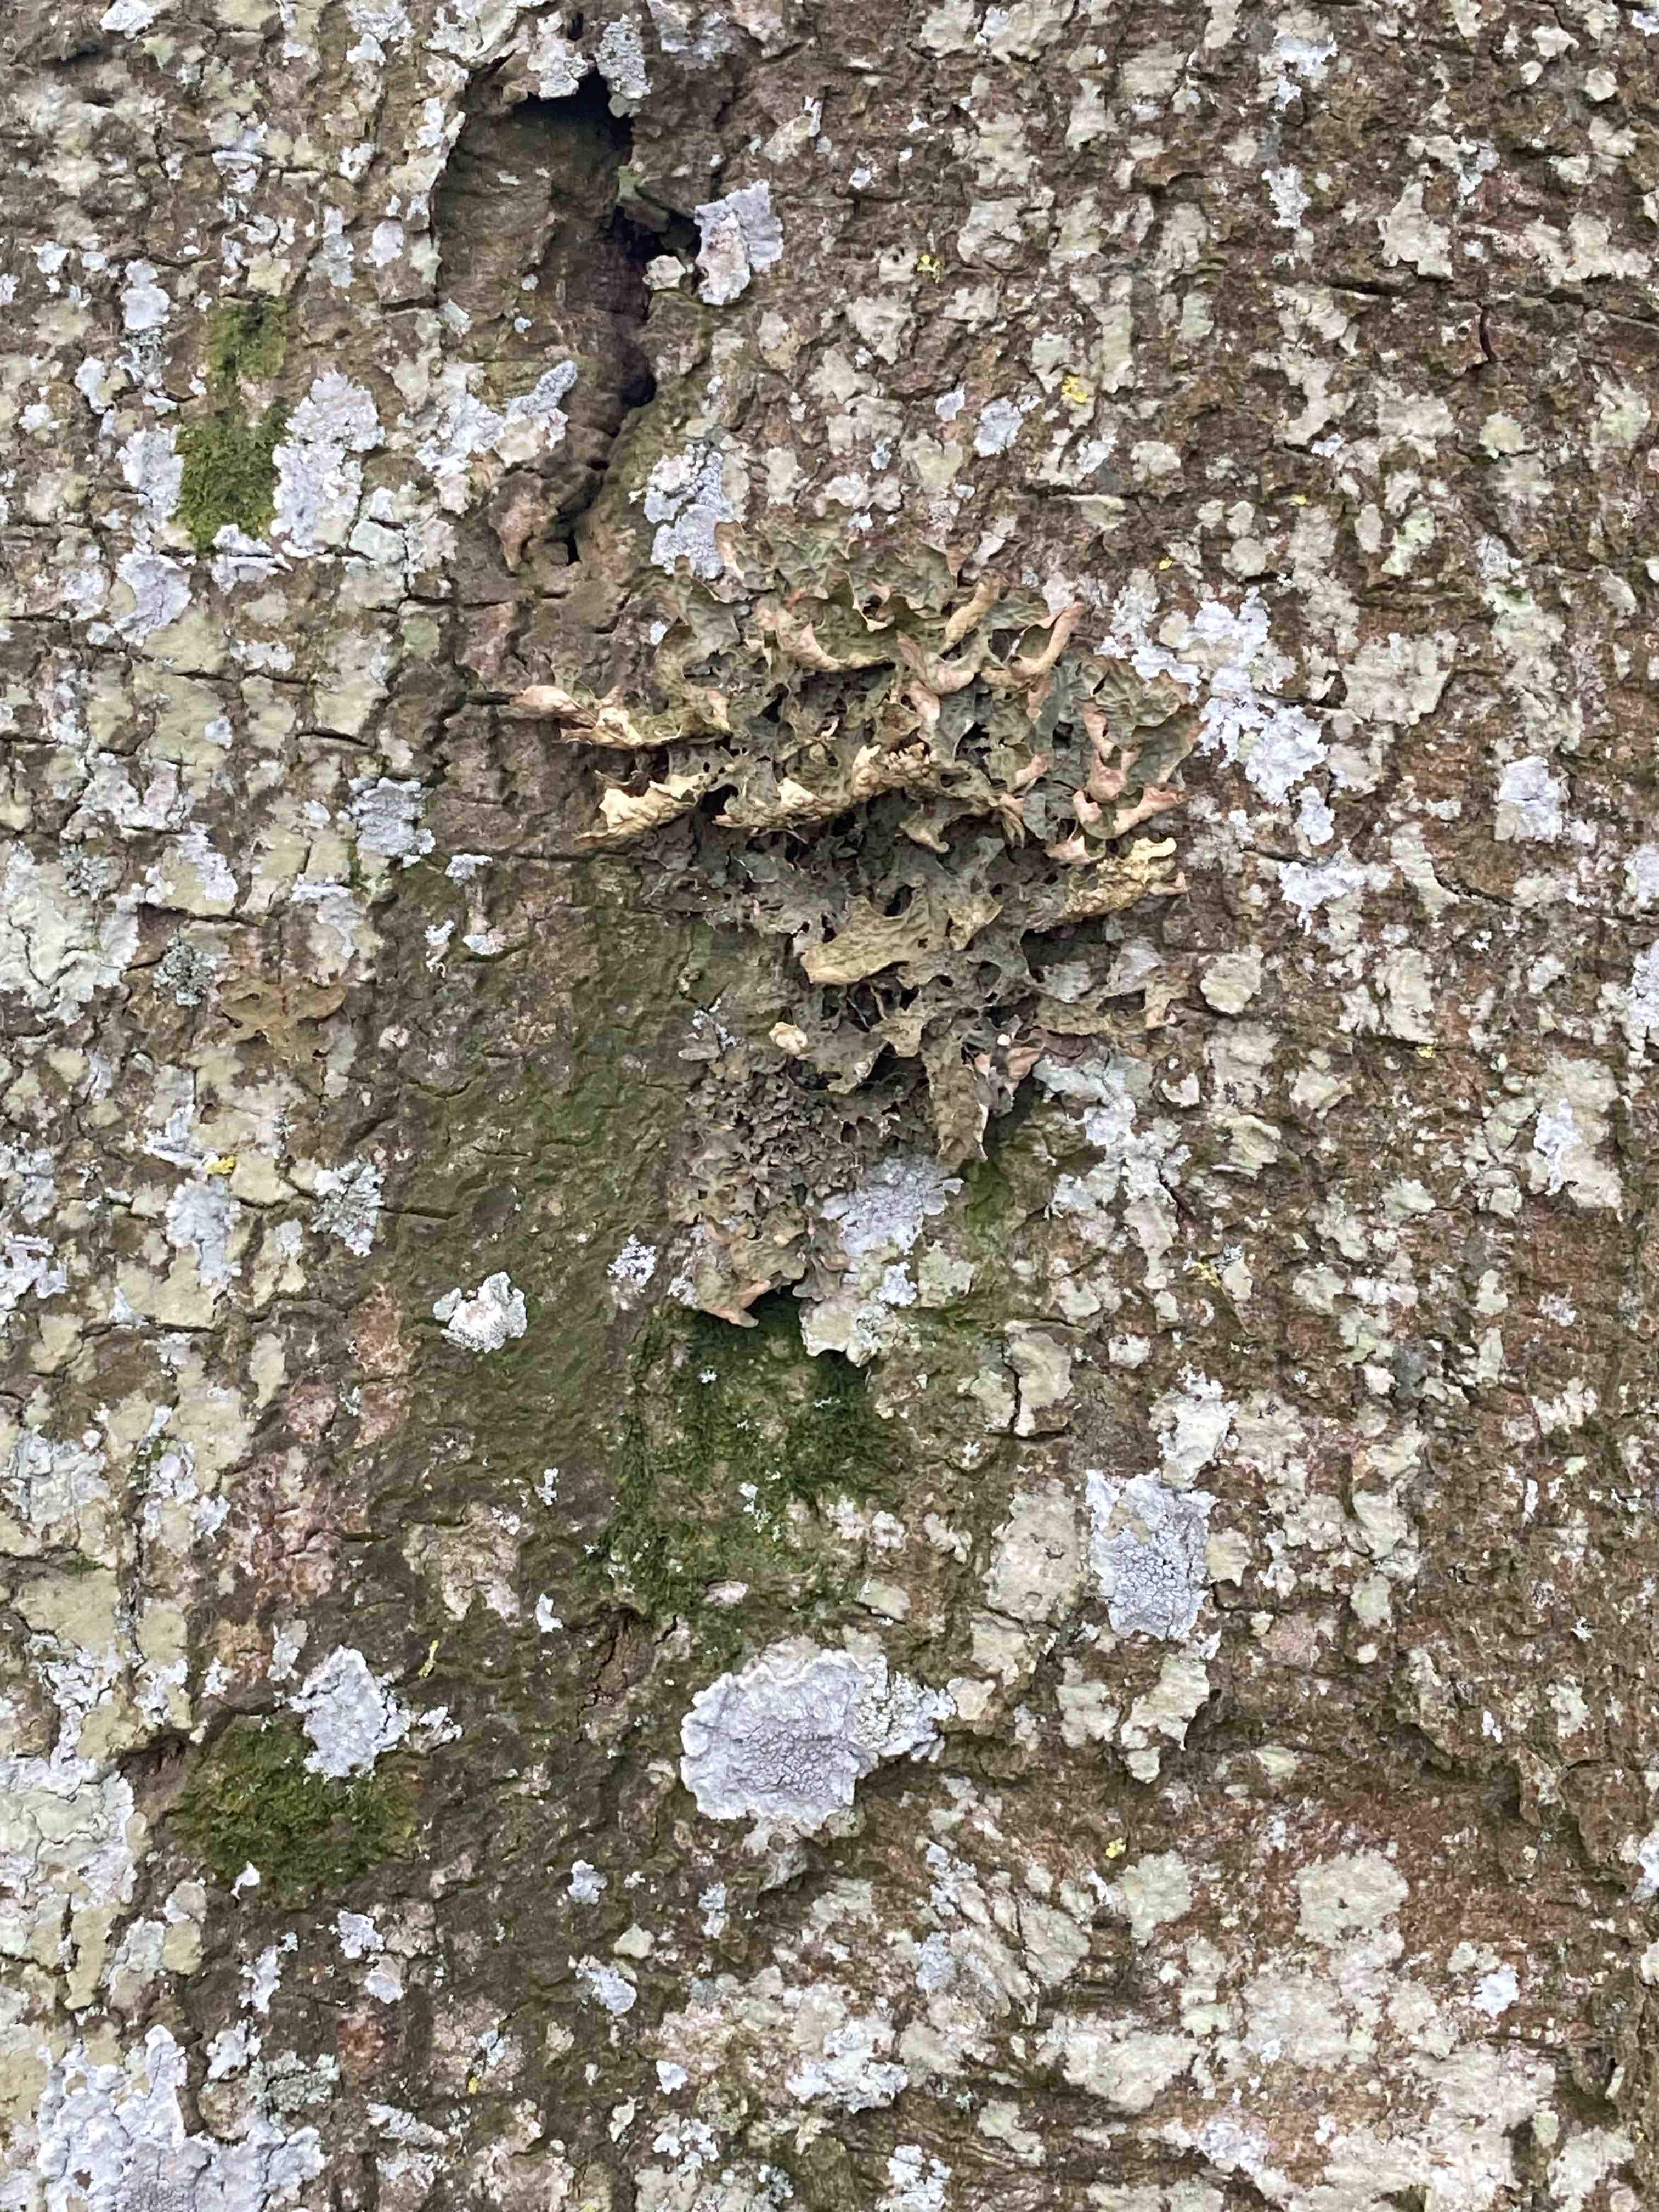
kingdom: Fungi
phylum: Ascomycota
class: Lecanoromycetes
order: Peltigerales
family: Lobariaceae
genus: Lobaria
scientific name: Lobaria pulmonaria
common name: almindelig lungelav
